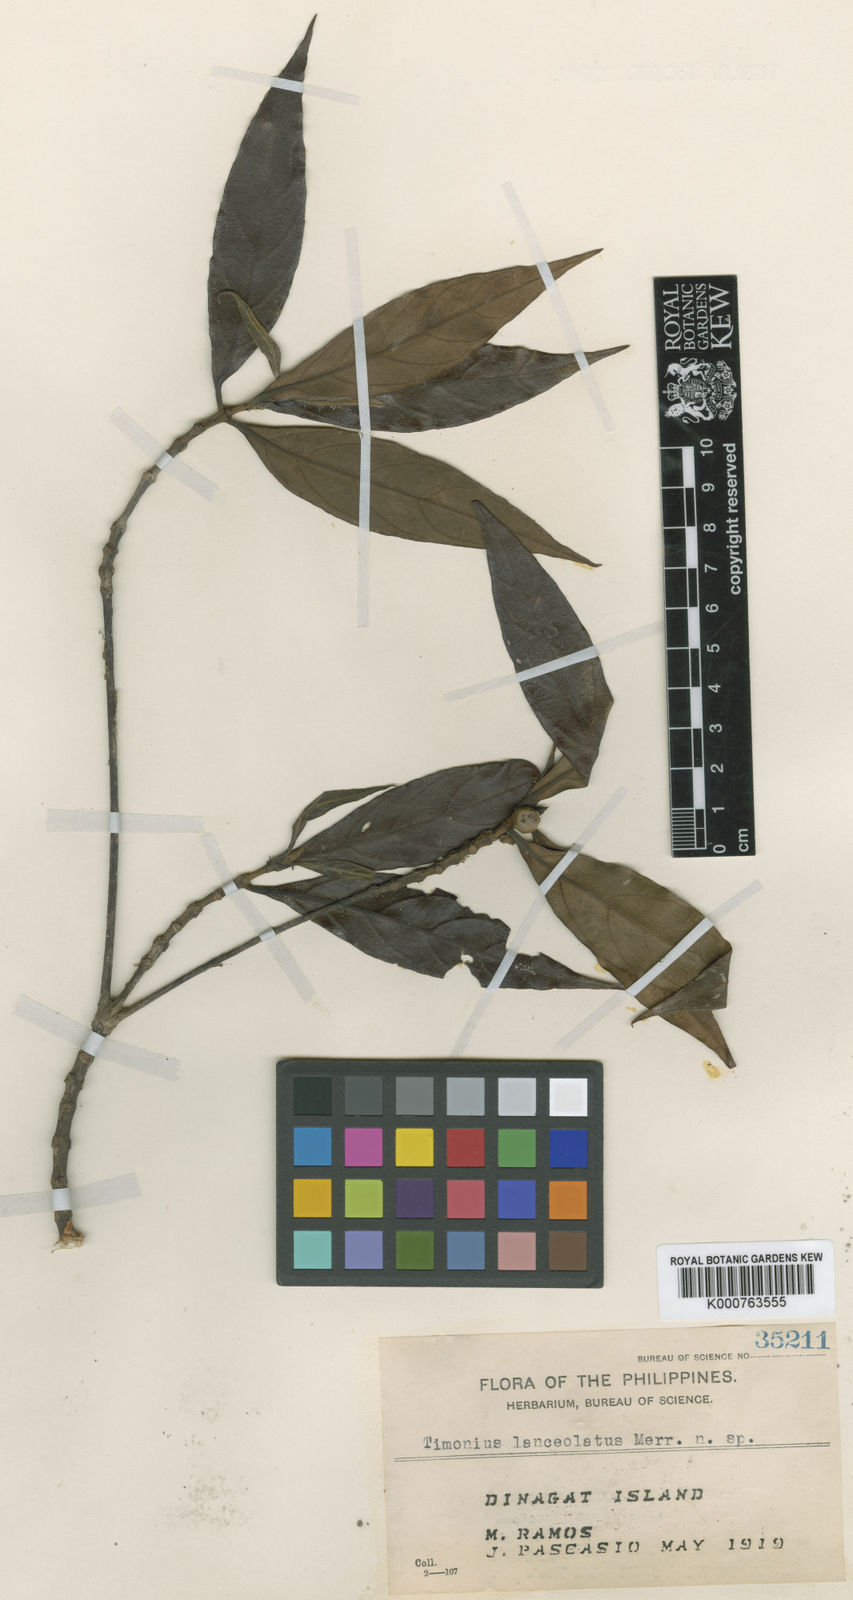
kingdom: Plantae
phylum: Tracheophyta
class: Magnoliopsida
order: Gentianales
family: Rubiaceae
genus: Timonius
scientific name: Timonius lanceolatus
